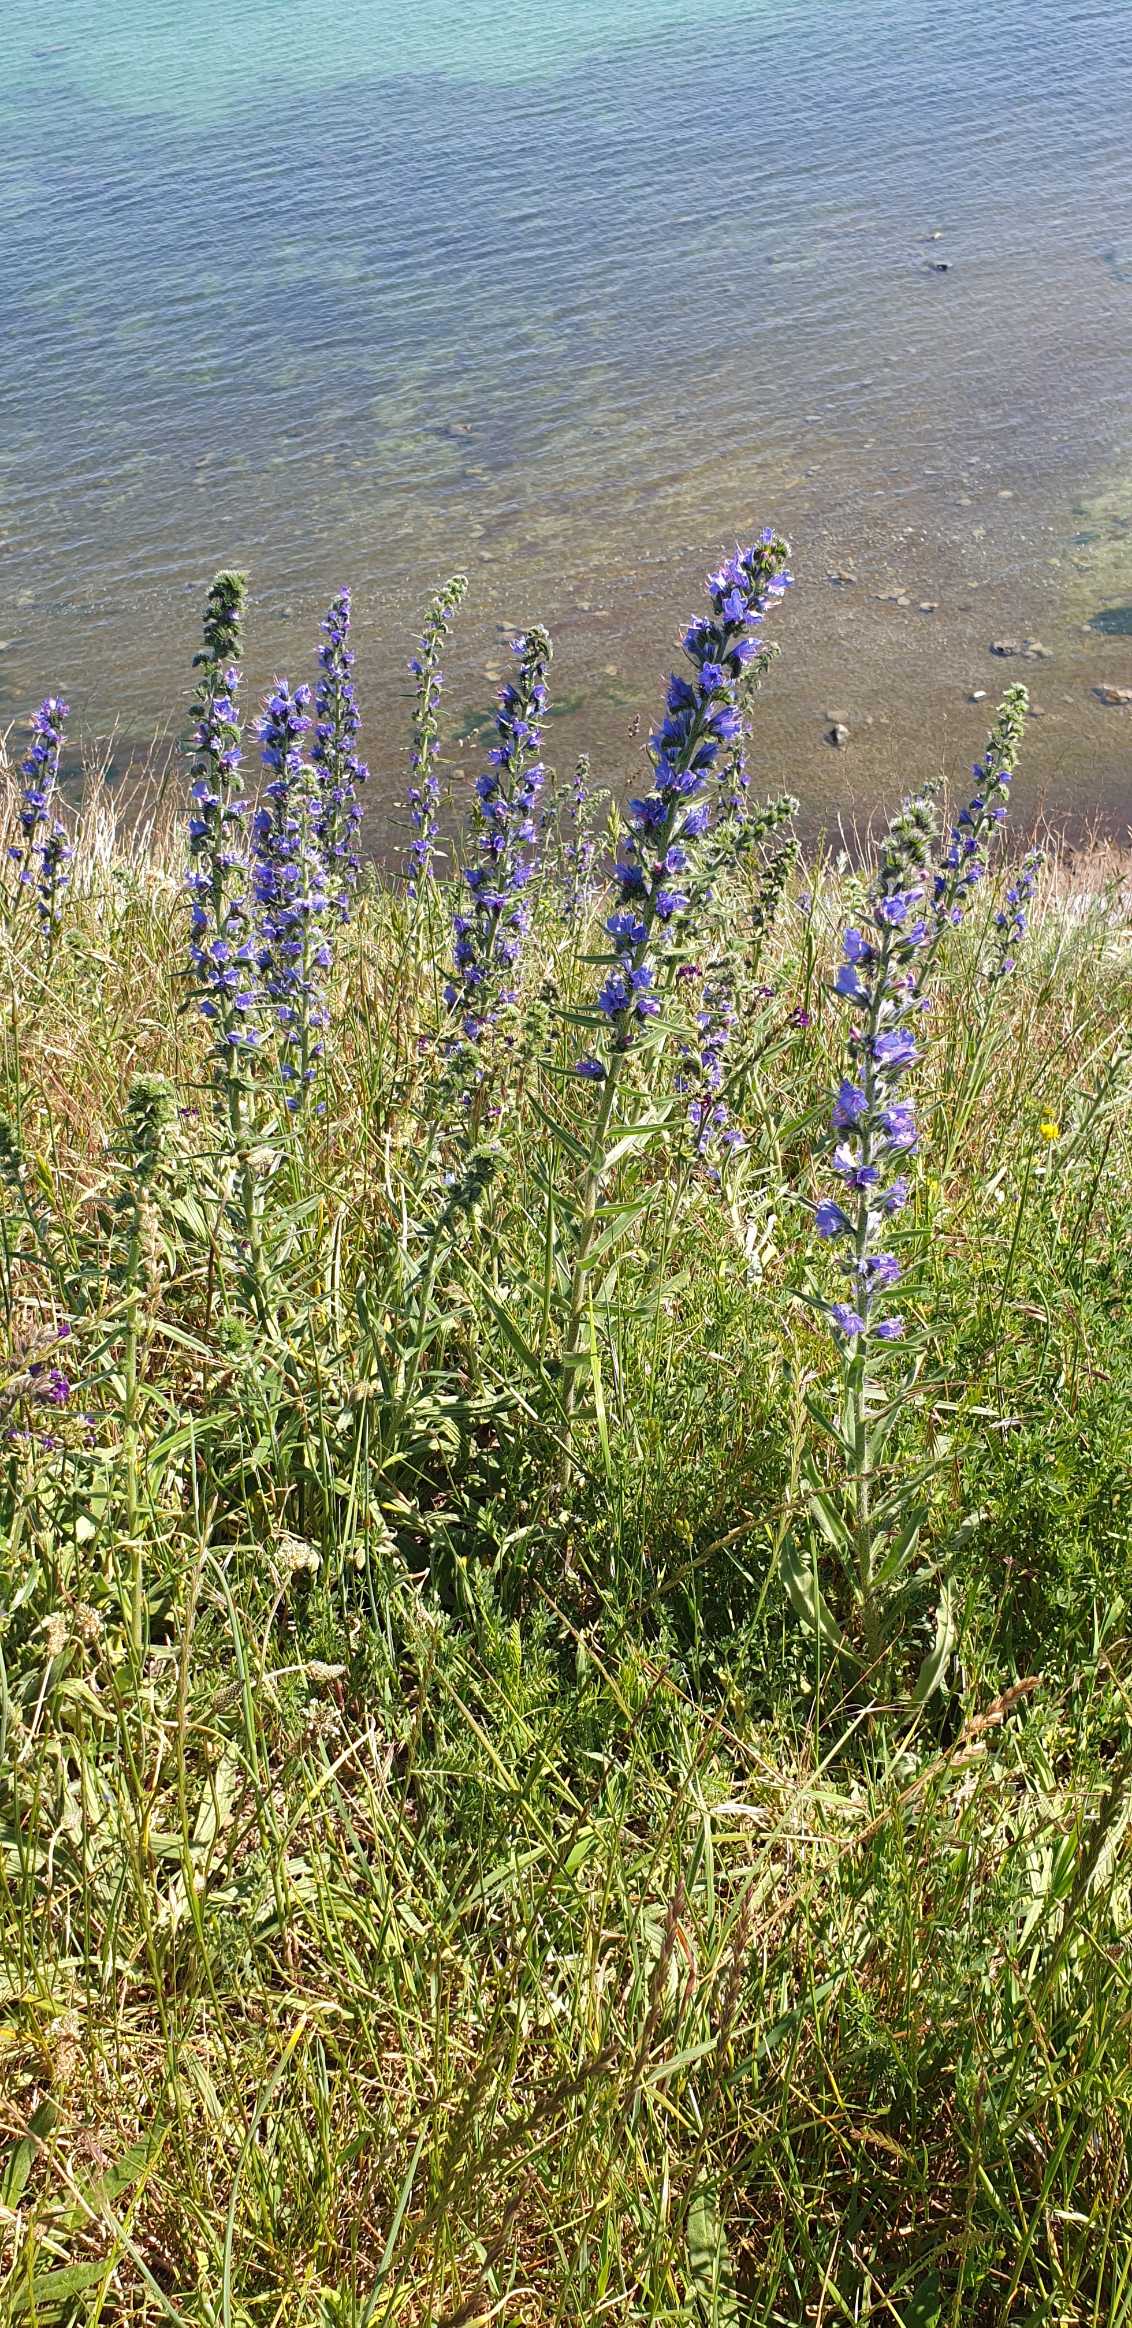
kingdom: Plantae
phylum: Tracheophyta
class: Magnoliopsida
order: Boraginales
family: Boraginaceae
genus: Echium
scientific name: Echium vulgare
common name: Slangehoved
